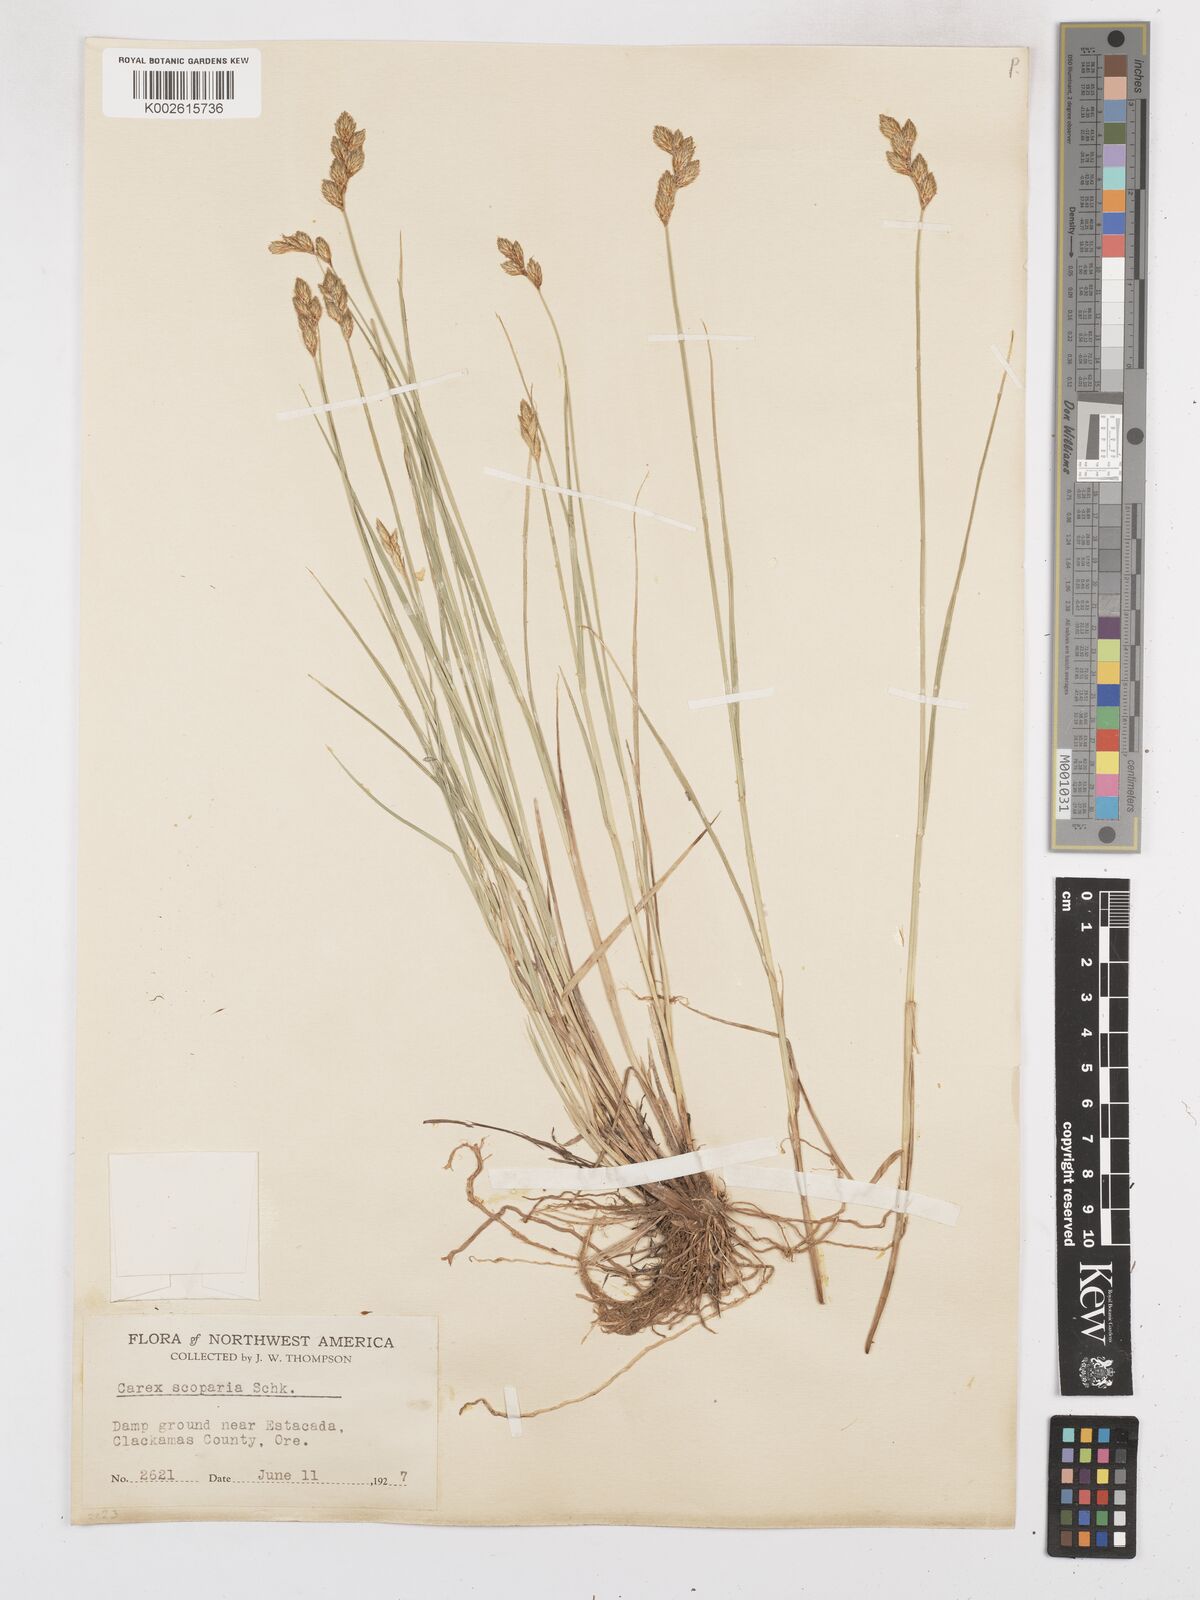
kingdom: Plantae
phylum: Tracheophyta
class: Liliopsida
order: Poales
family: Cyperaceae
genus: Carex
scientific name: Carex leporina
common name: Oval sedge
